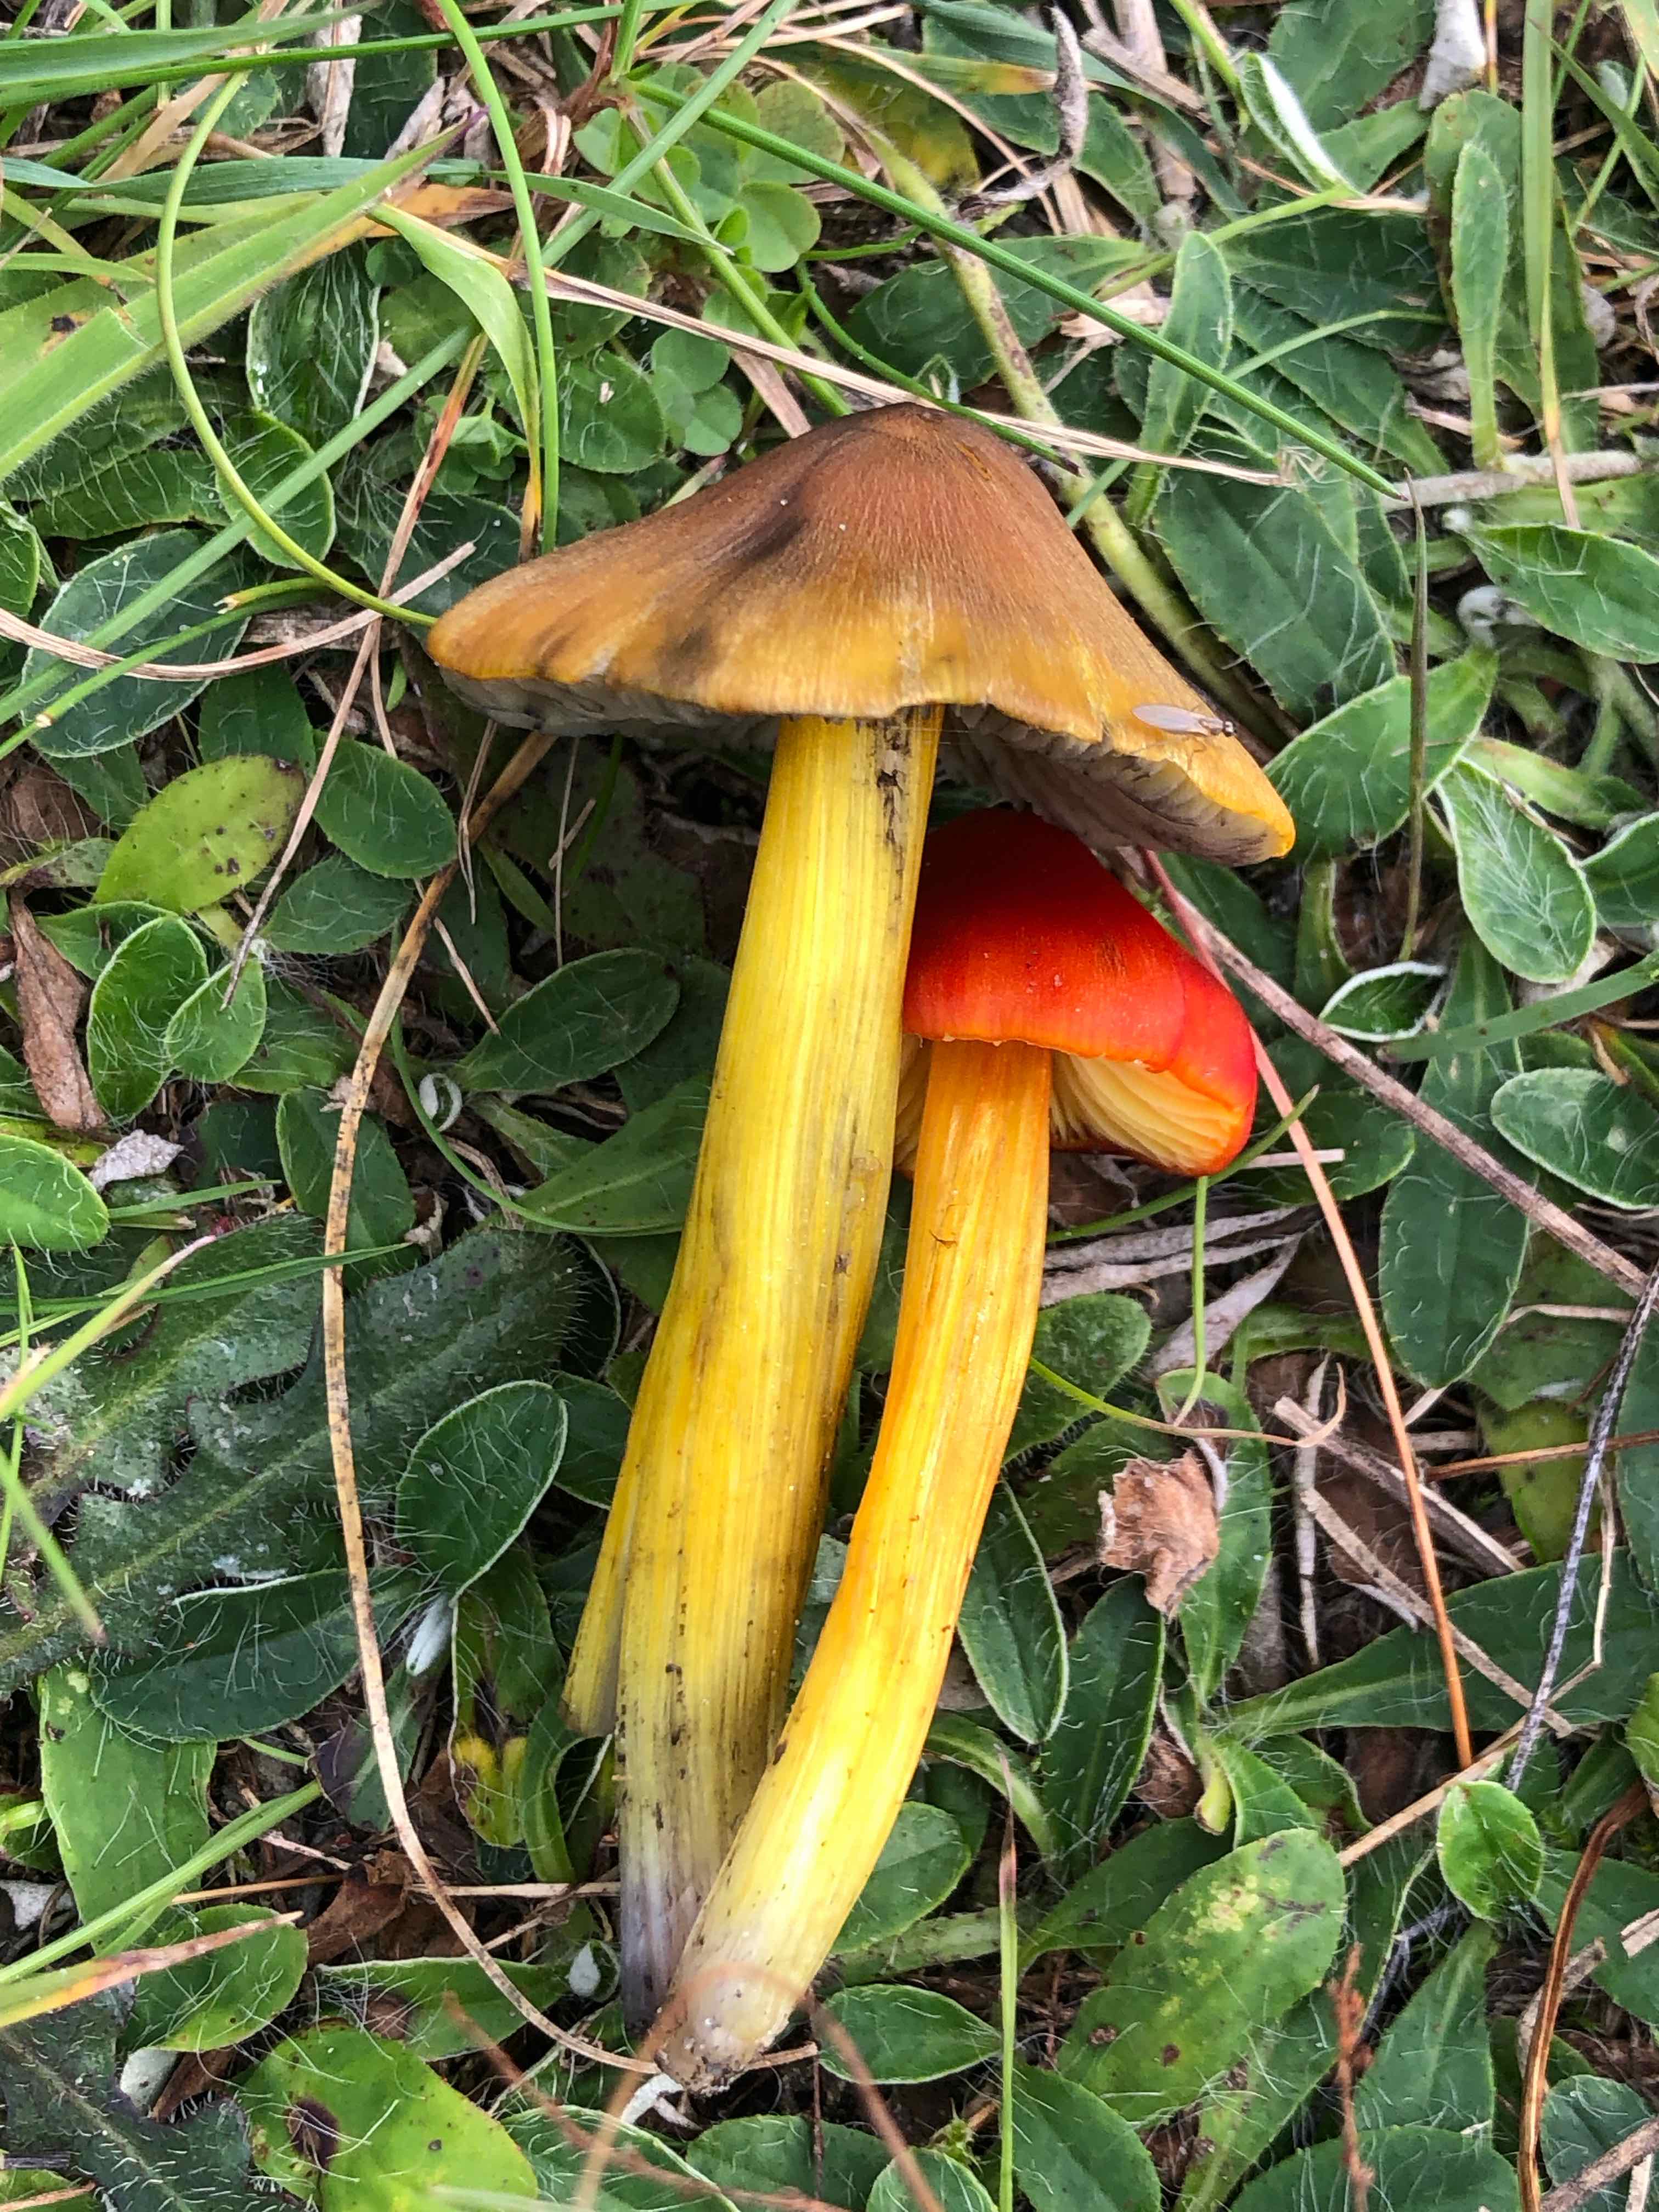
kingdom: Fungi
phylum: Basidiomycota
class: Agaricomycetes
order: Agaricales
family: Hygrophoraceae
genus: Hygrocybe
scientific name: Hygrocybe conica
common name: kegle-vokshat
